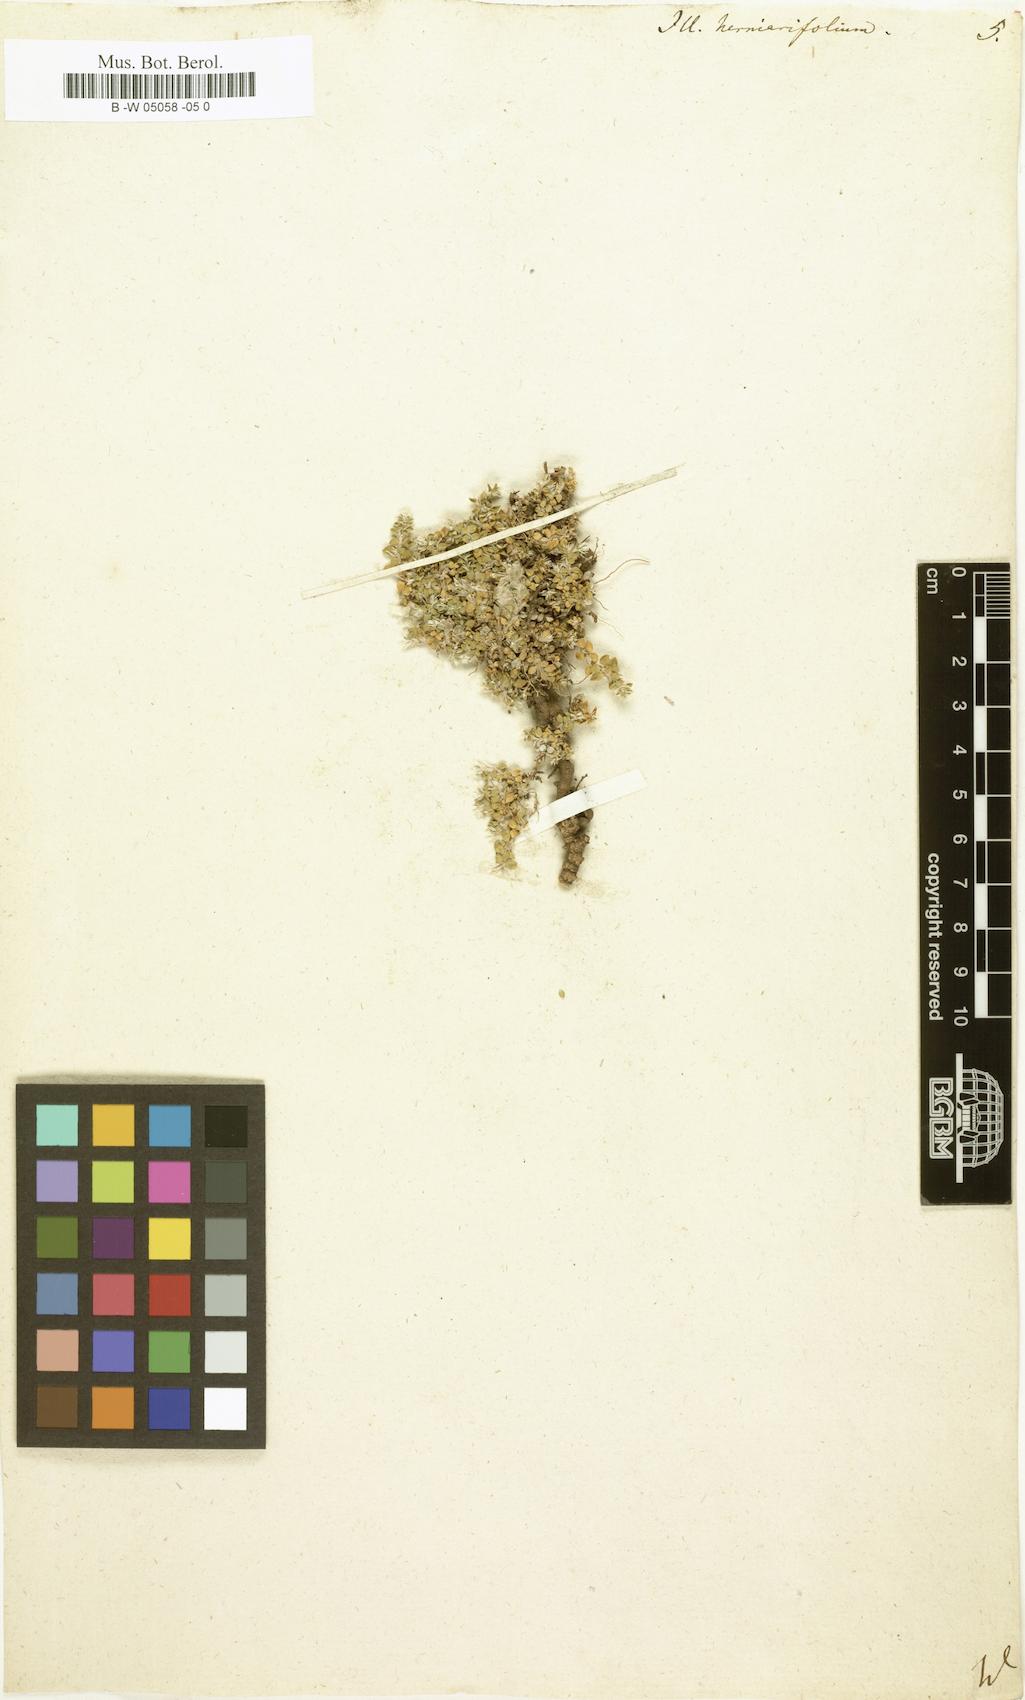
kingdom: Plantae
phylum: Tracheophyta
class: Magnoliopsida
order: Caryophyllales
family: Caryophyllaceae
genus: Illecebrum
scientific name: Illecebrum
